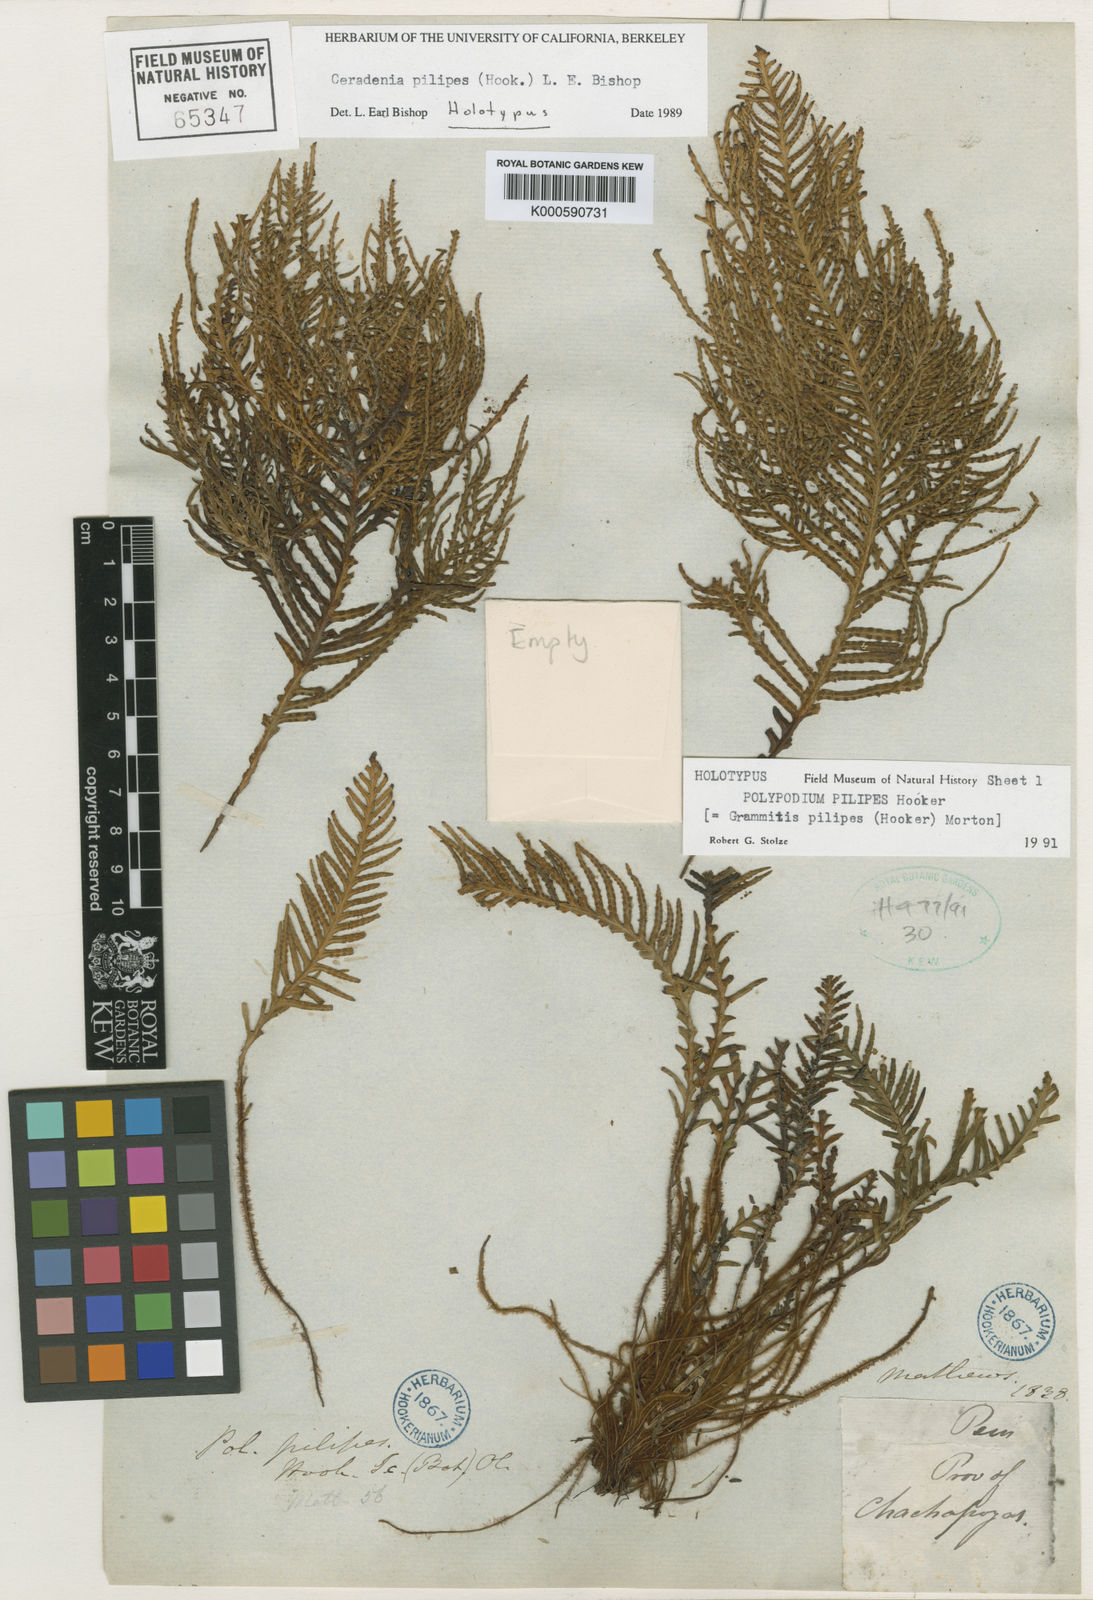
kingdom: Plantae
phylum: Tracheophyta
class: Polypodiopsida
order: Polypodiales
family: Polypodiaceae
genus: Ceradenia
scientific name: Ceradenia pilipes
